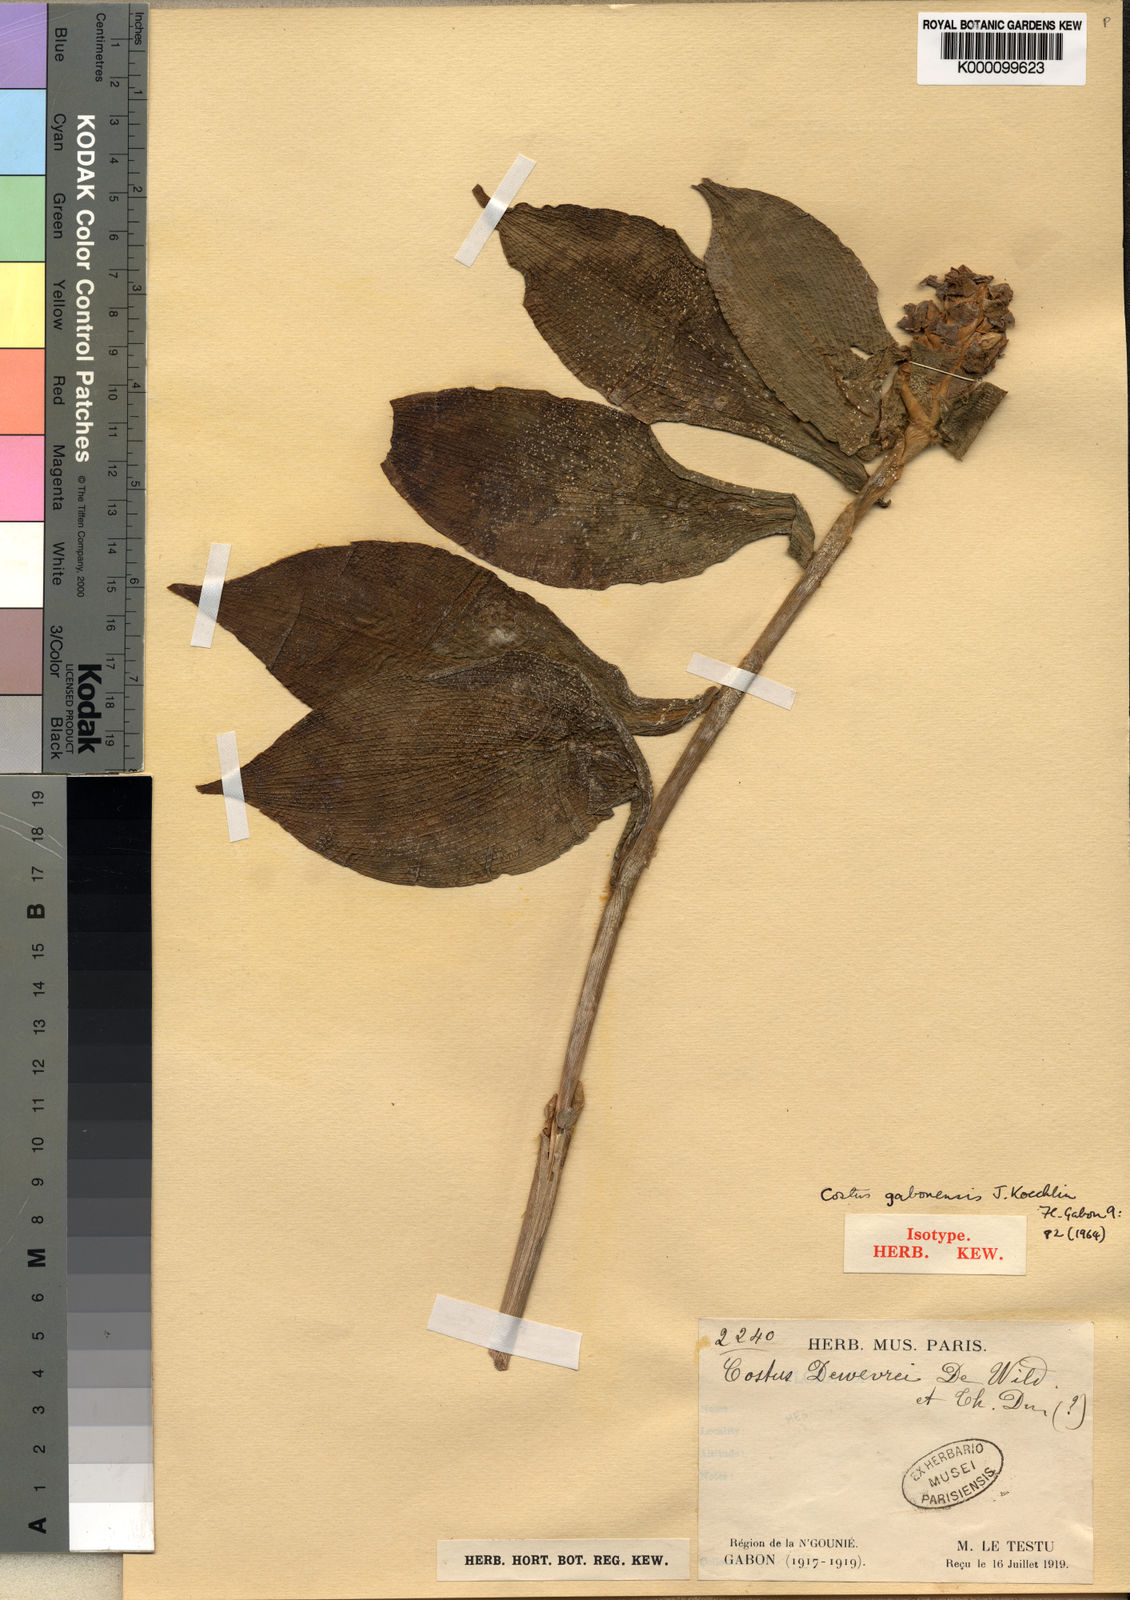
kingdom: Plantae
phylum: Tracheophyta
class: Liliopsida
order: Zingiberales
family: Costaceae
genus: Costus
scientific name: Costus gabonensis
